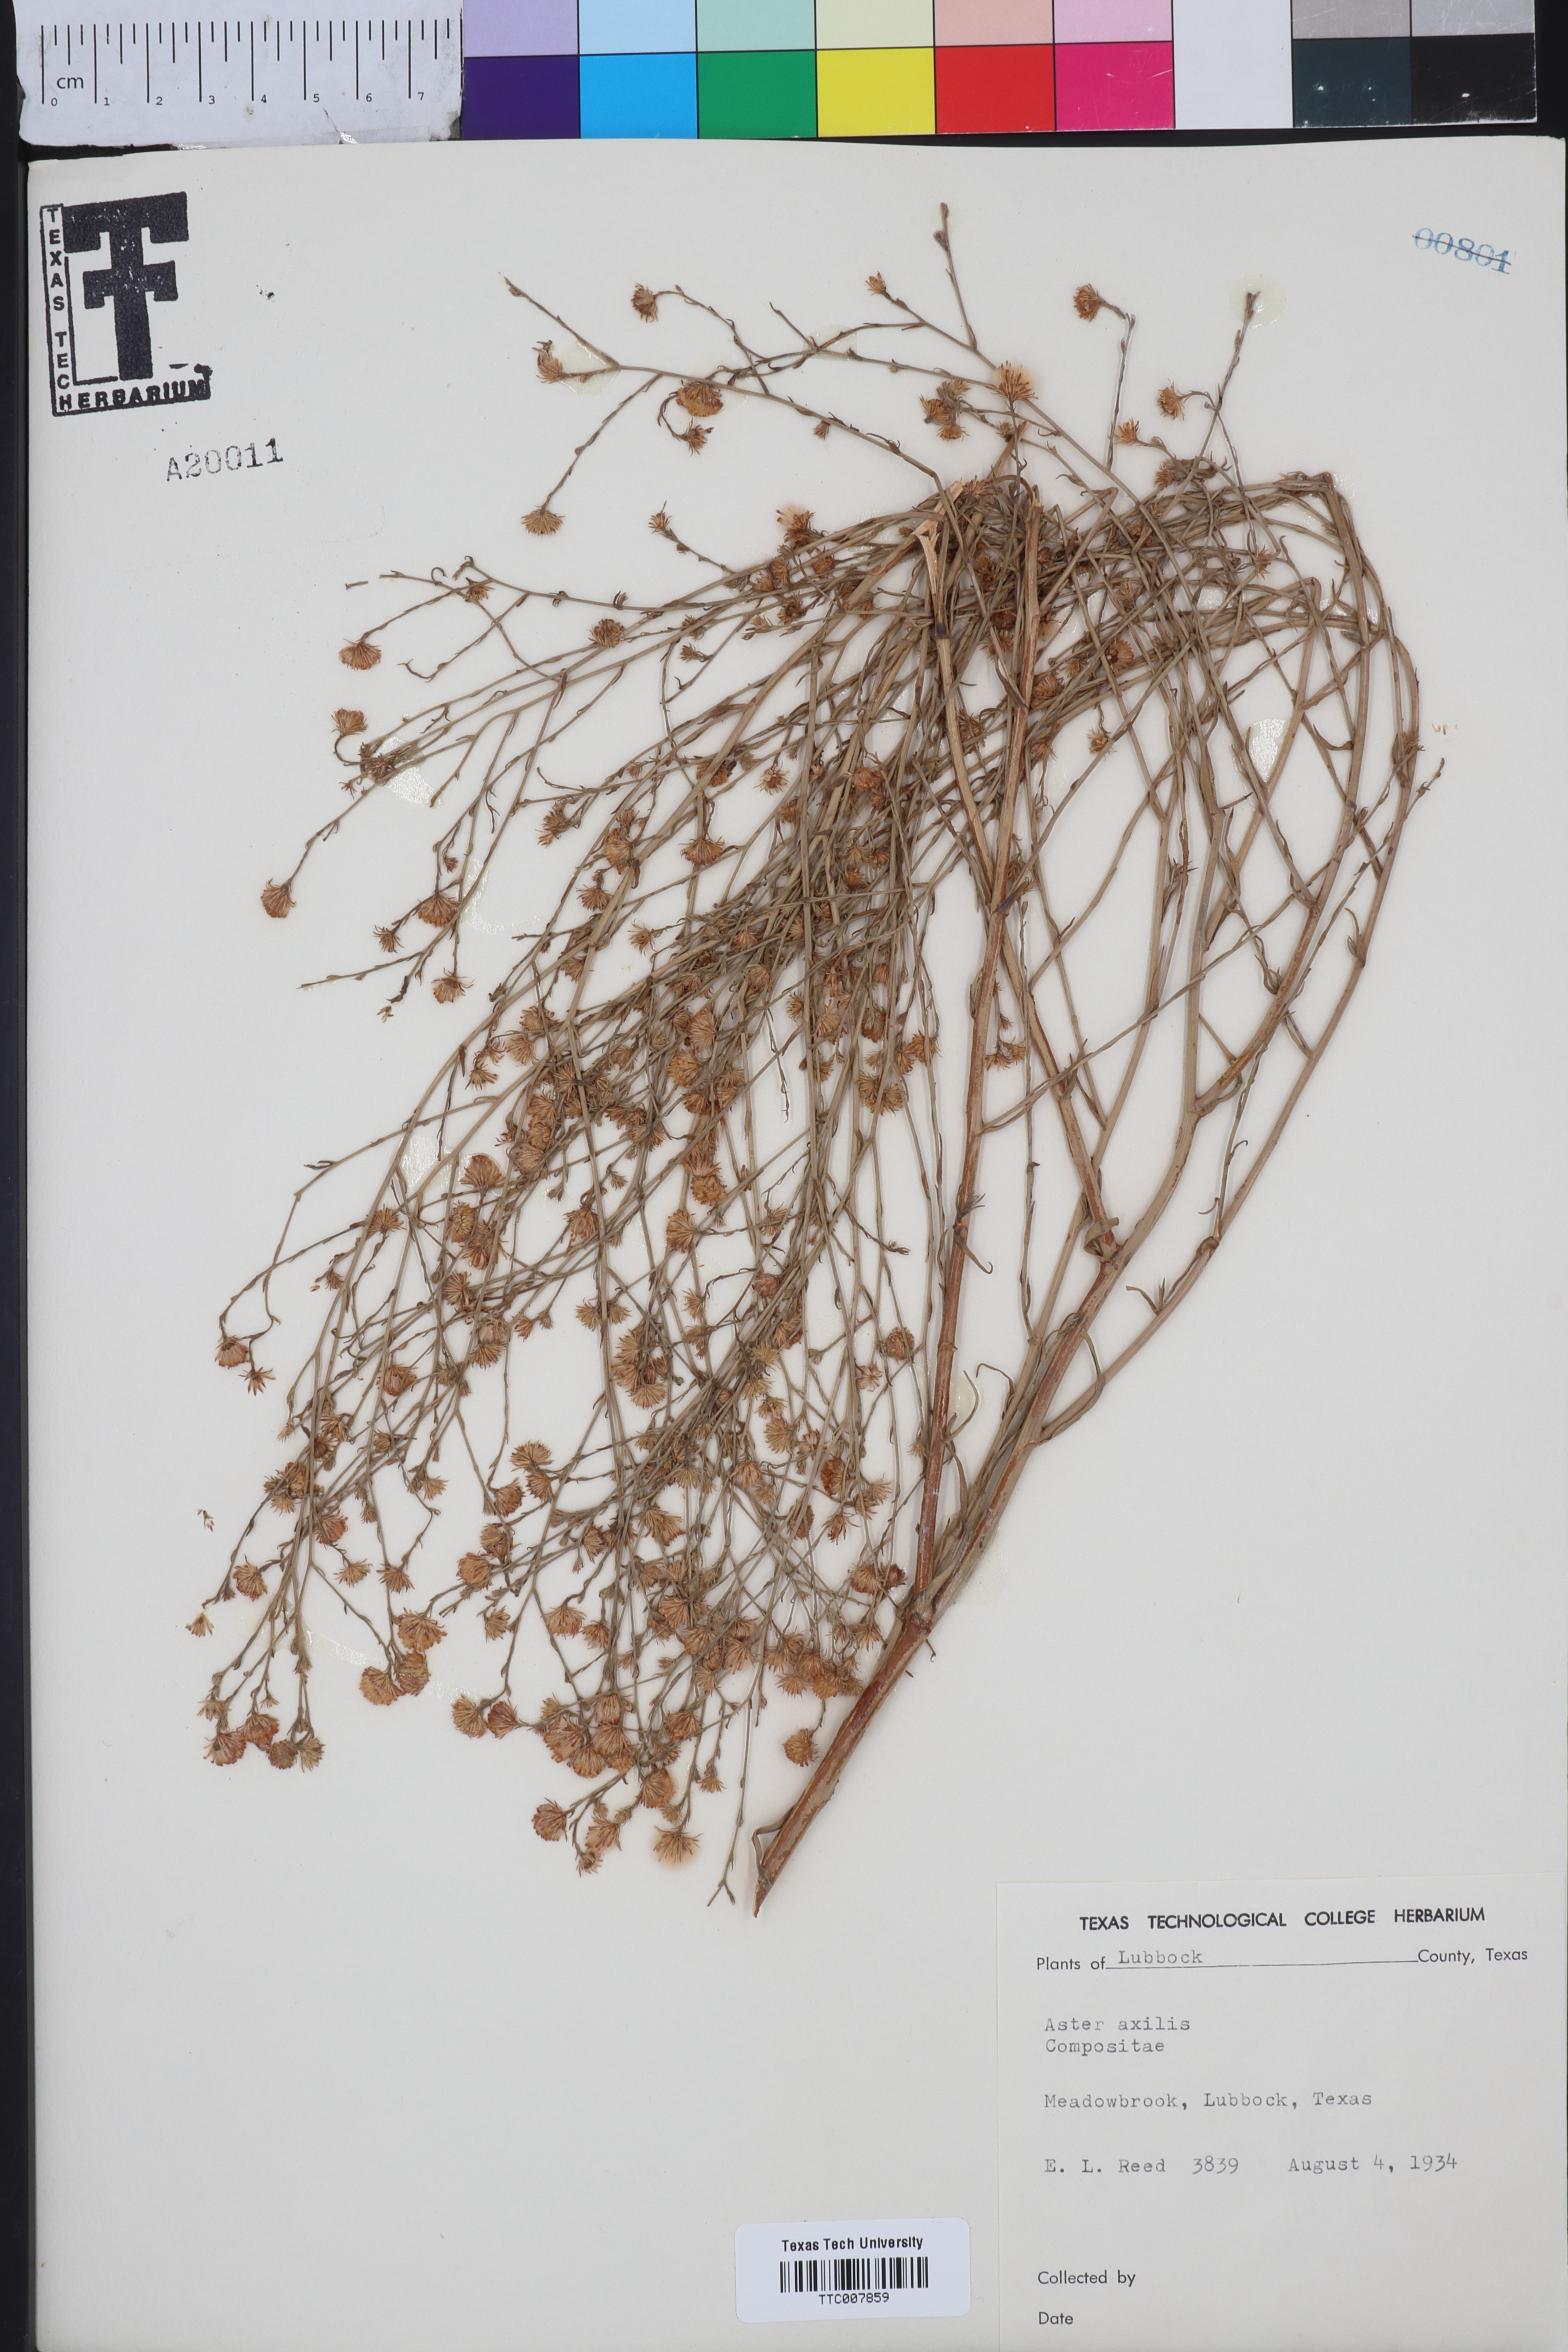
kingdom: Plantae
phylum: Tracheophyta
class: Magnoliopsida
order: Asterales
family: Asteraceae
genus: Olearia
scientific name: Olearia axillaris
